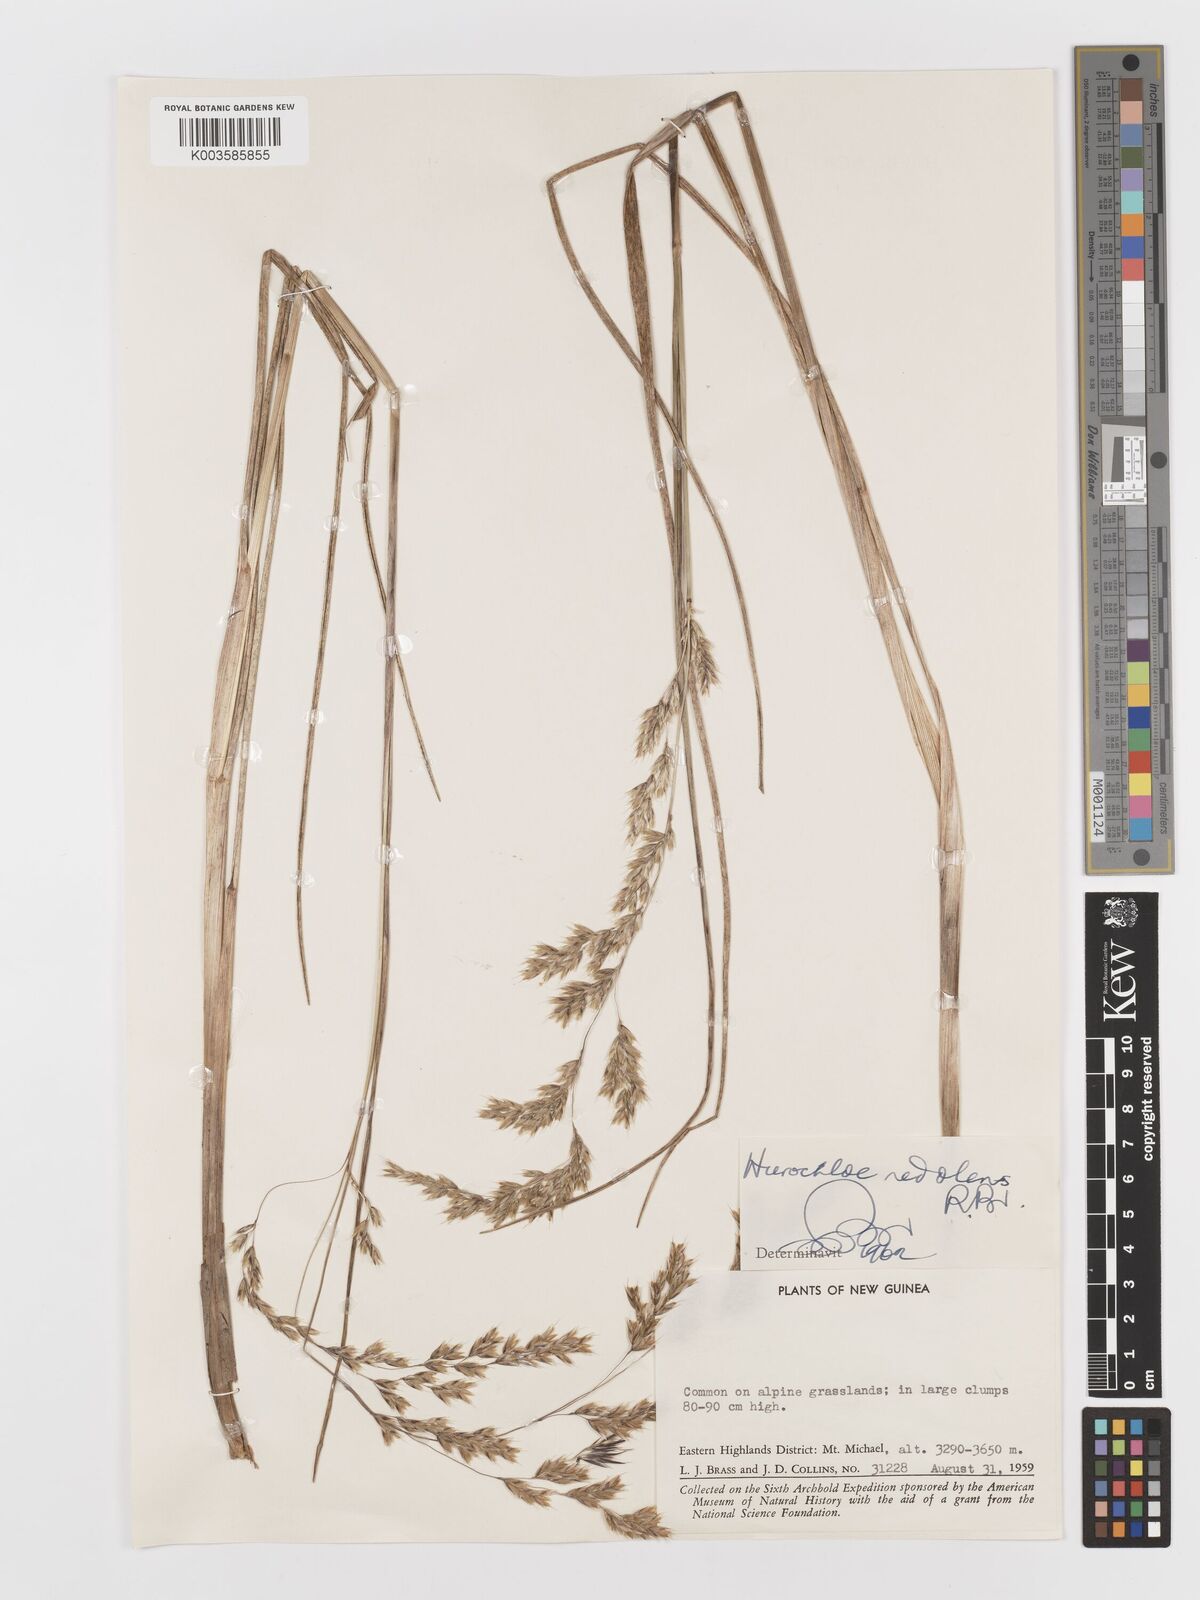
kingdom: Plantae
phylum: Tracheophyta
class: Liliopsida
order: Poales
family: Poaceae
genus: Anthoxanthum
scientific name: Anthoxanthum redolens
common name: Sweet holy grass
